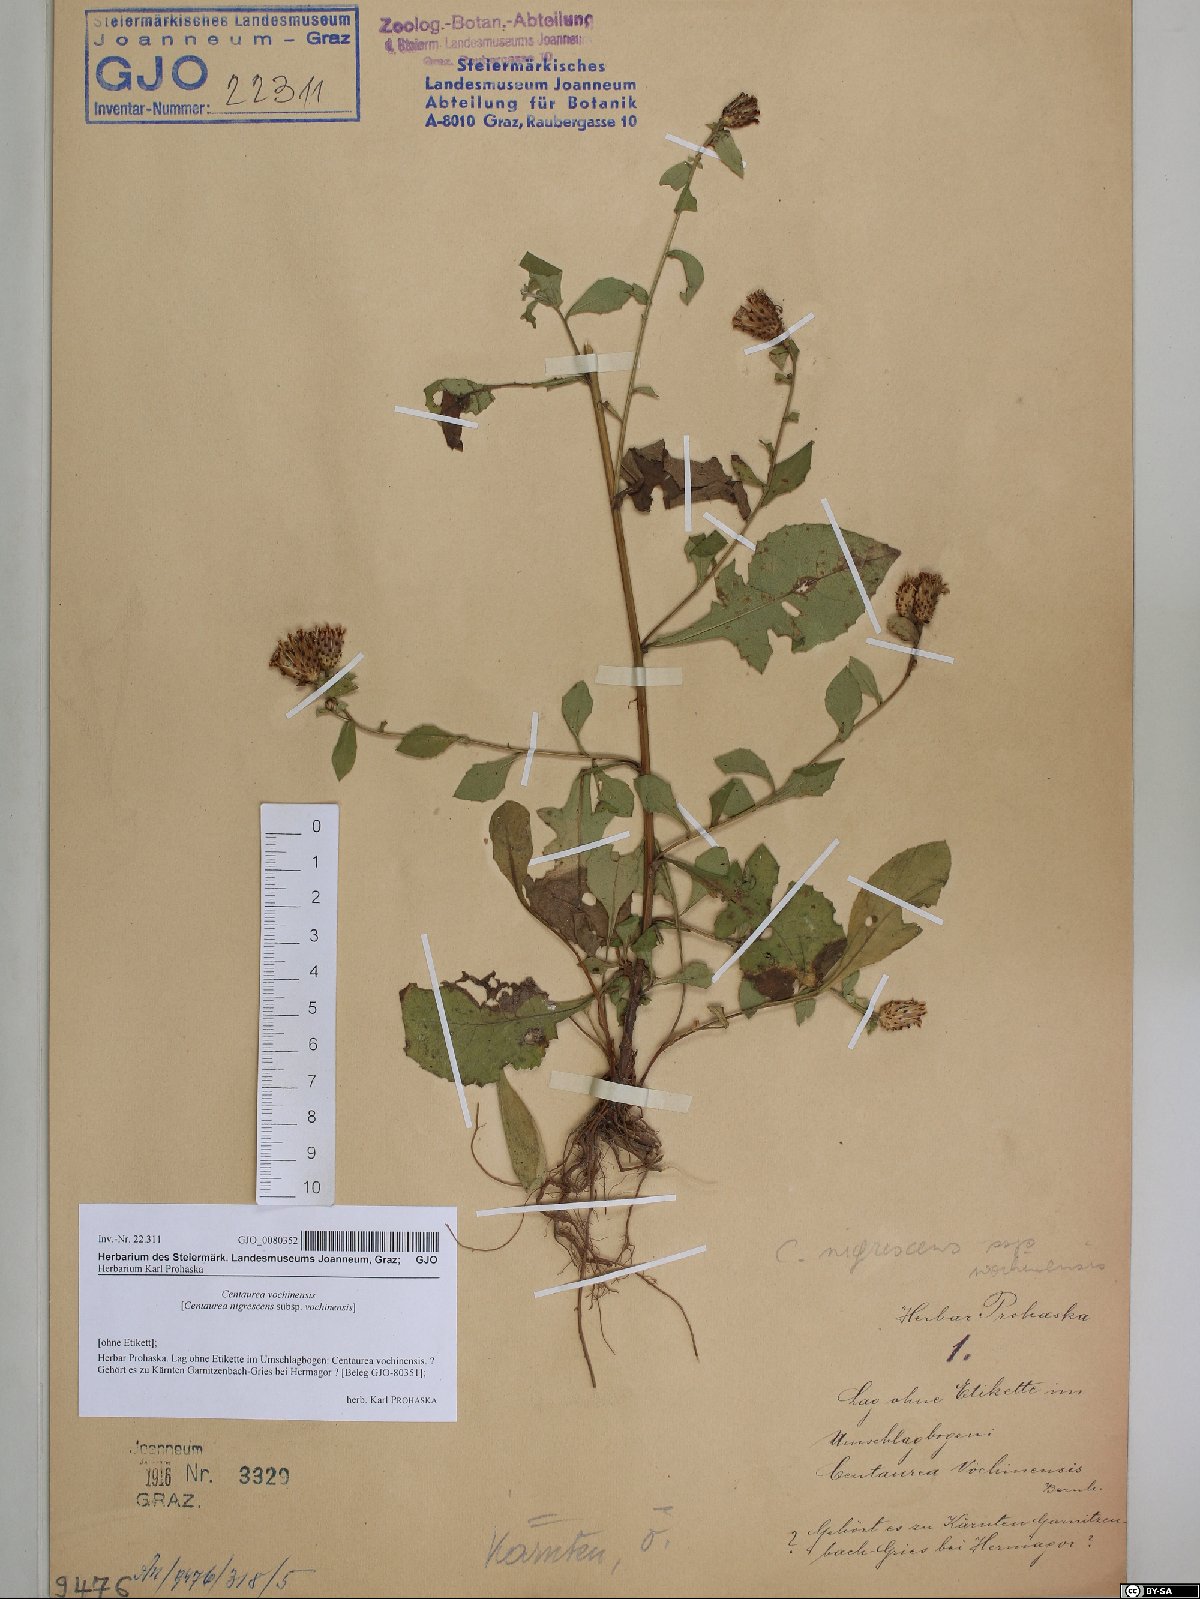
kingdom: Plantae
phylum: Tracheophyta
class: Magnoliopsida
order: Asterales
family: Asteraceae
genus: Centaurea
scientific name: Centaurea carniolica
